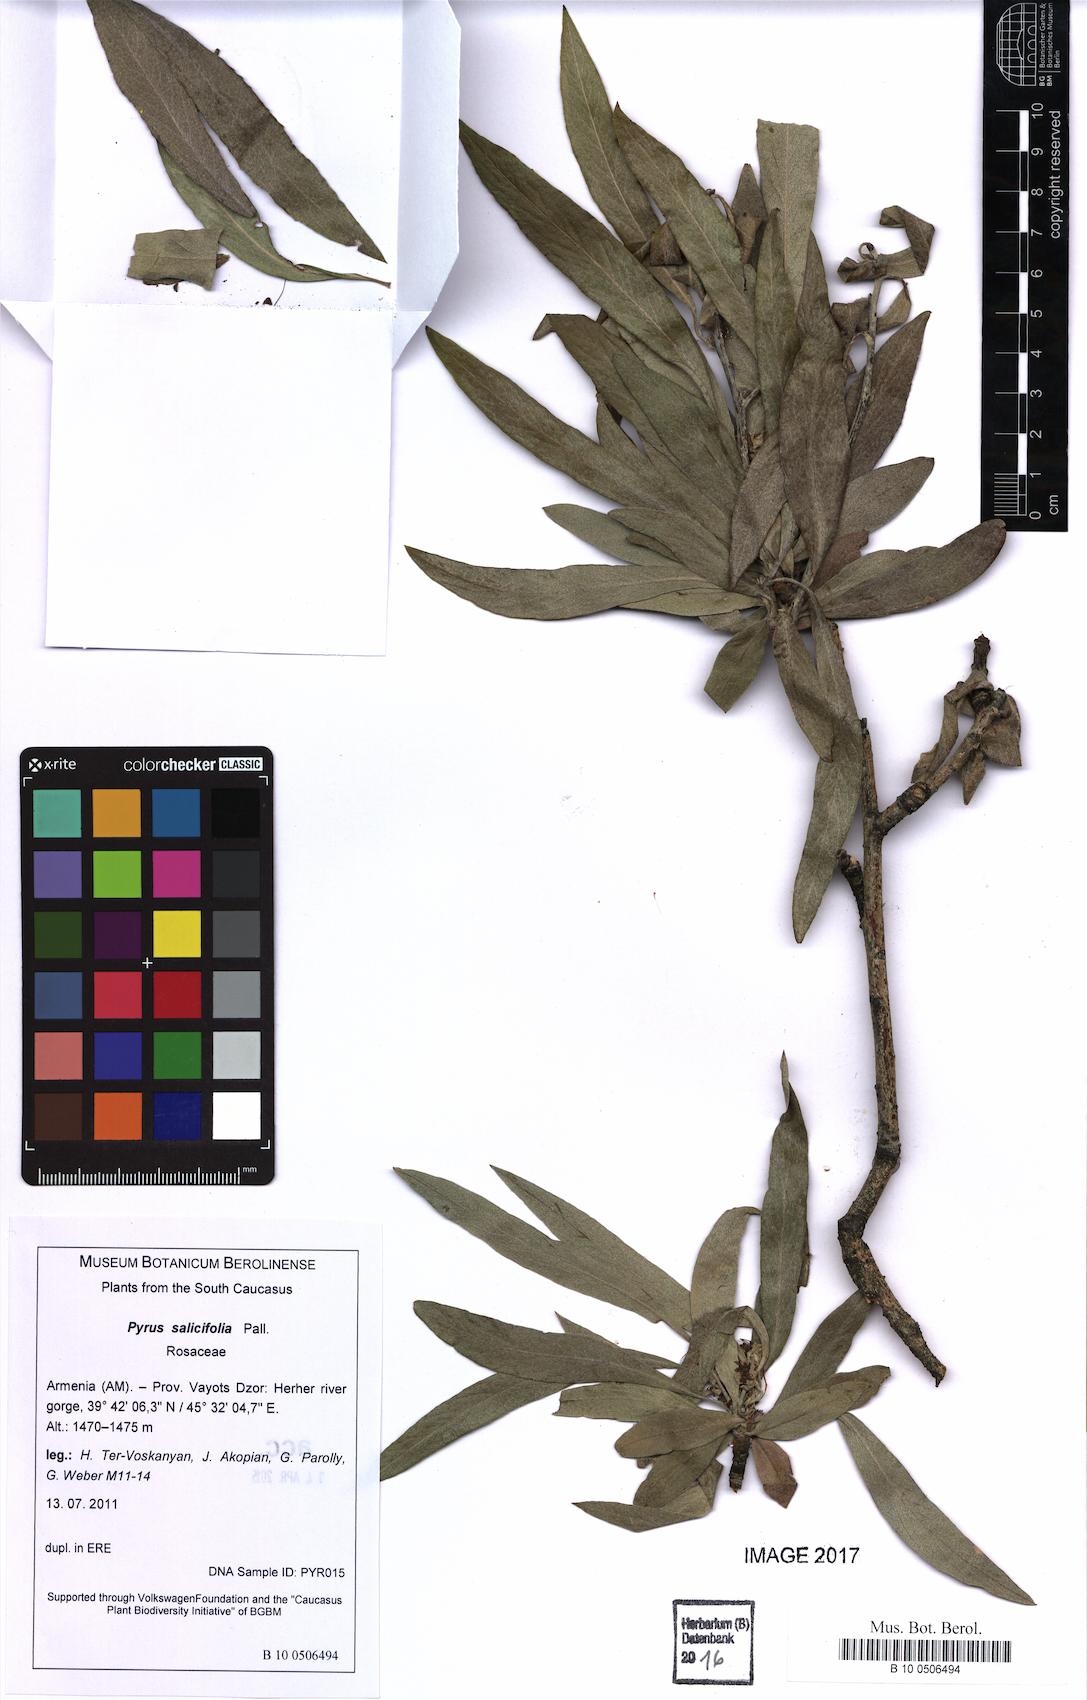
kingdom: Plantae
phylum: Tracheophyta
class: Magnoliopsida
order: Rosales
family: Rosaceae
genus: Pyrus
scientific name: Pyrus salicifolia
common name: Willow-leaved pear
